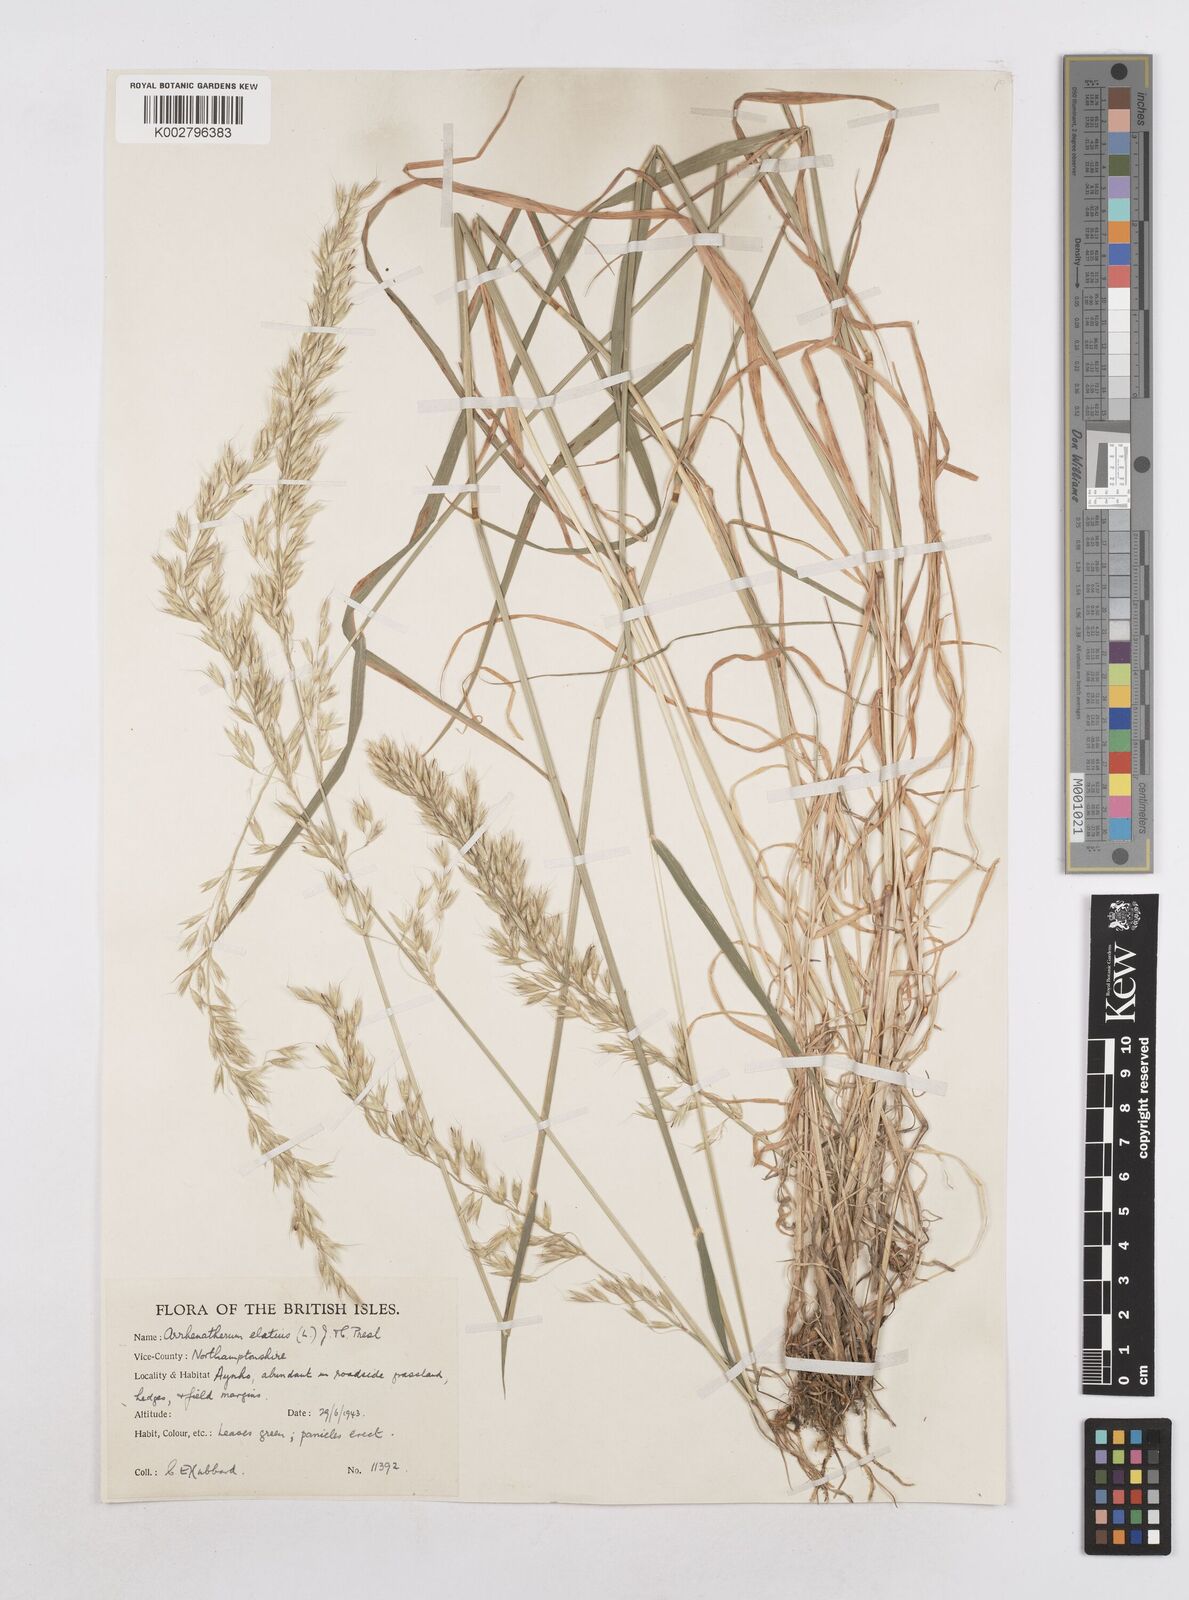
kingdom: Plantae
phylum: Tracheophyta
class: Liliopsida
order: Poales
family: Poaceae
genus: Arrhenatherum
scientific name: Arrhenatherum elatius
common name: Tall oatgrass
